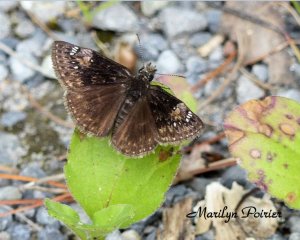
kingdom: Animalia
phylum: Arthropoda
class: Insecta
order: Lepidoptera
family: Hesperiidae
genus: Gesta
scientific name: Gesta
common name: Wild Indigo Duskywing
